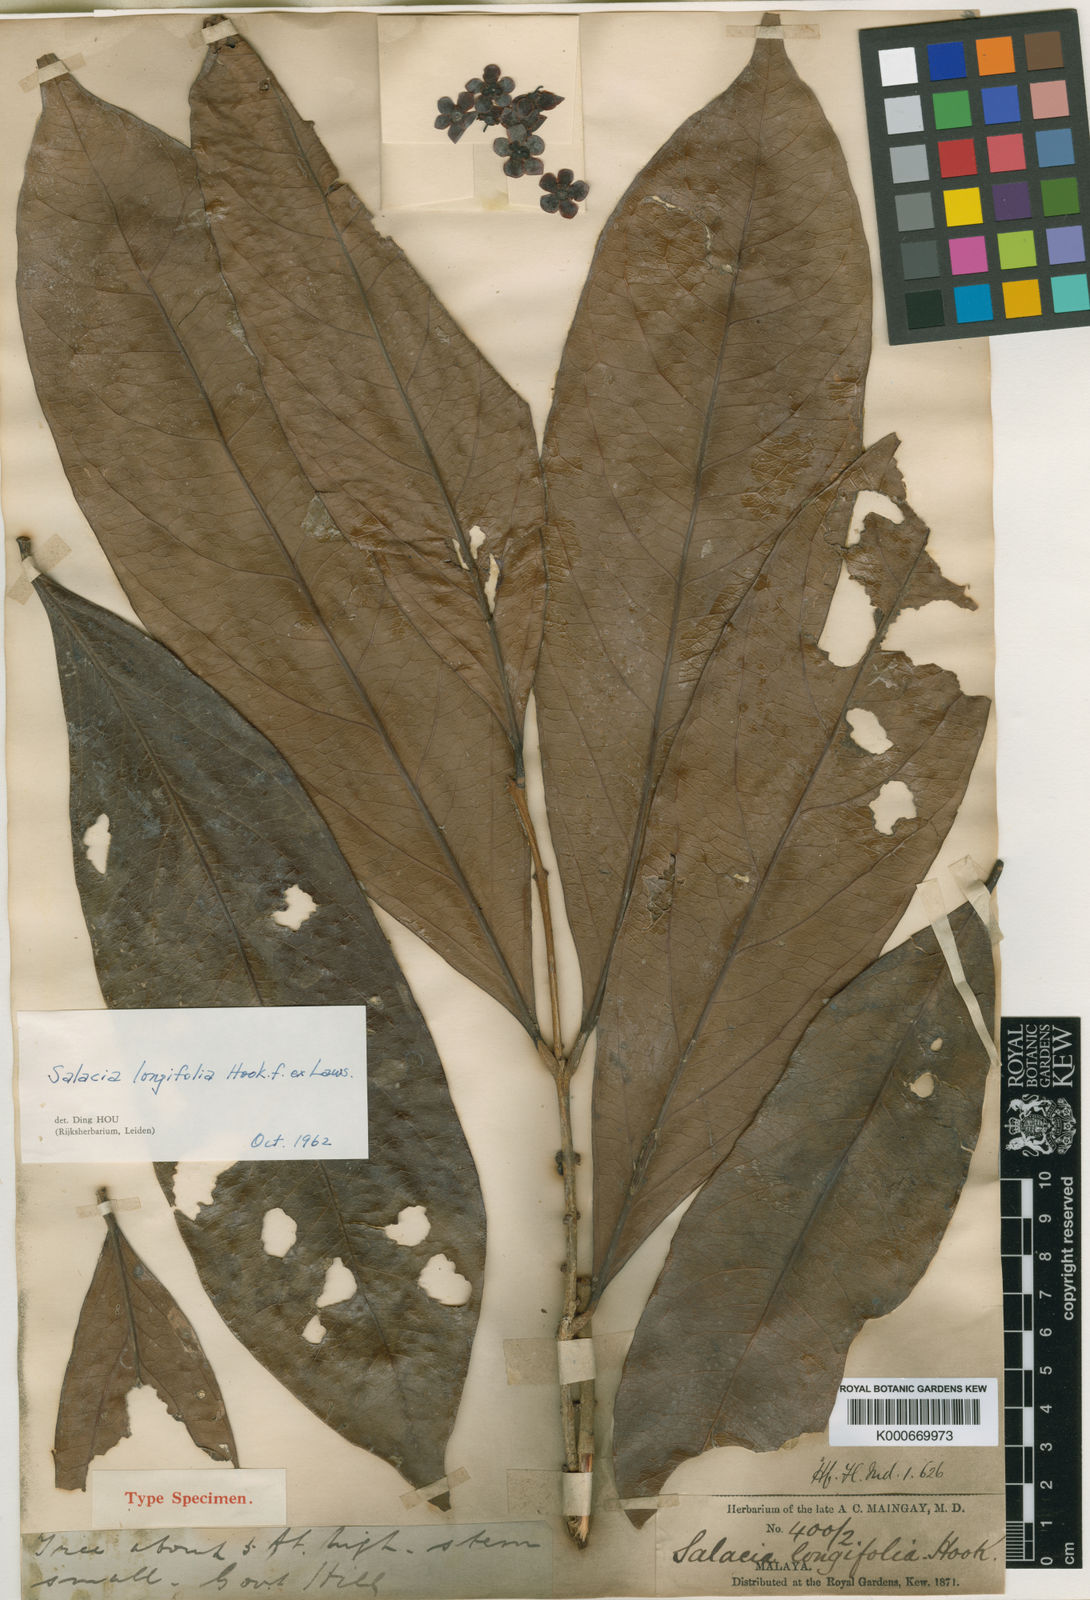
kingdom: Plantae
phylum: Tracheophyta
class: Magnoliopsida
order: Celastrales
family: Celastraceae
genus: Salacia
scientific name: Salacia grandiflora
